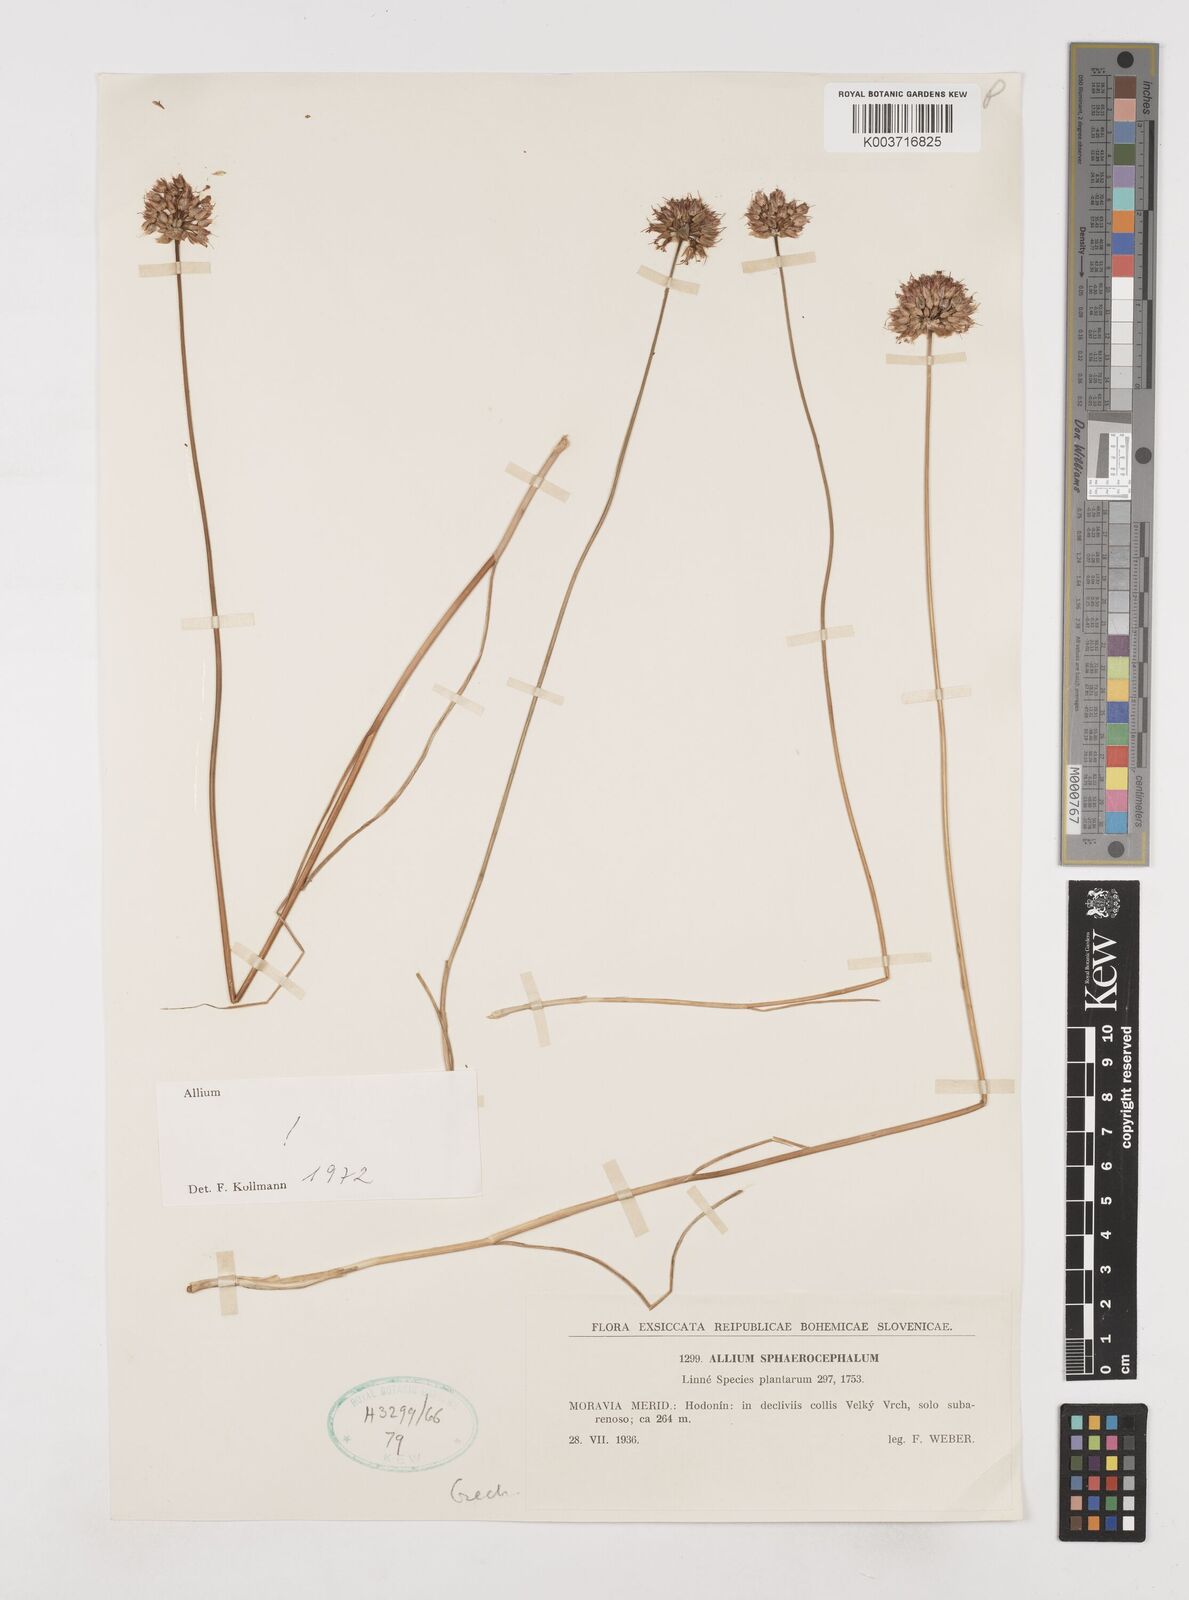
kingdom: Plantae
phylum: Tracheophyta
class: Liliopsida
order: Asparagales
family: Amaryllidaceae
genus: Allium
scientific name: Allium sphaerocephalon
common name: Round-headed leek
